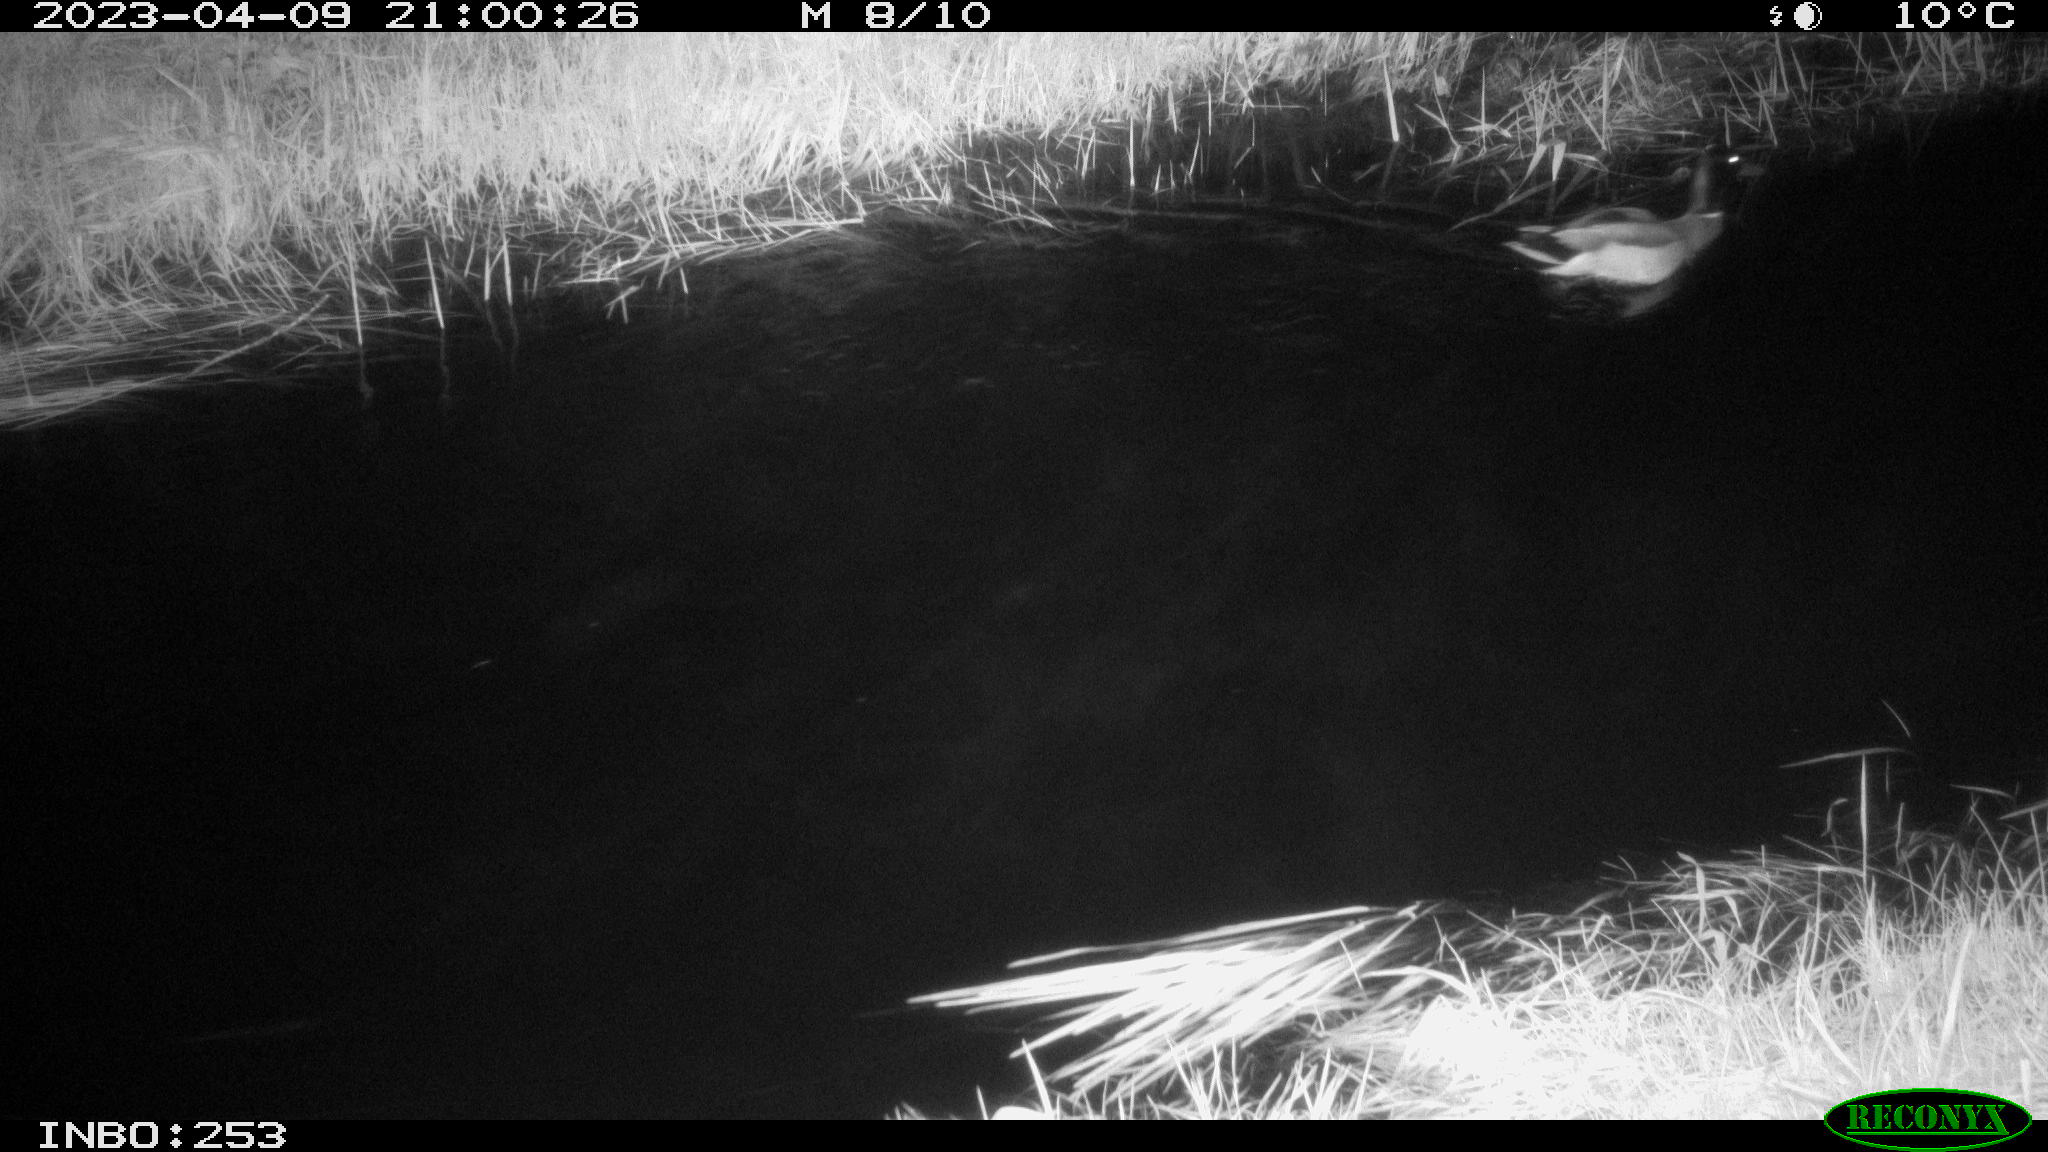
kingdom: Animalia
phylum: Chordata
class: Aves
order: Anseriformes
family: Anatidae
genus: Anas
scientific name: Anas
